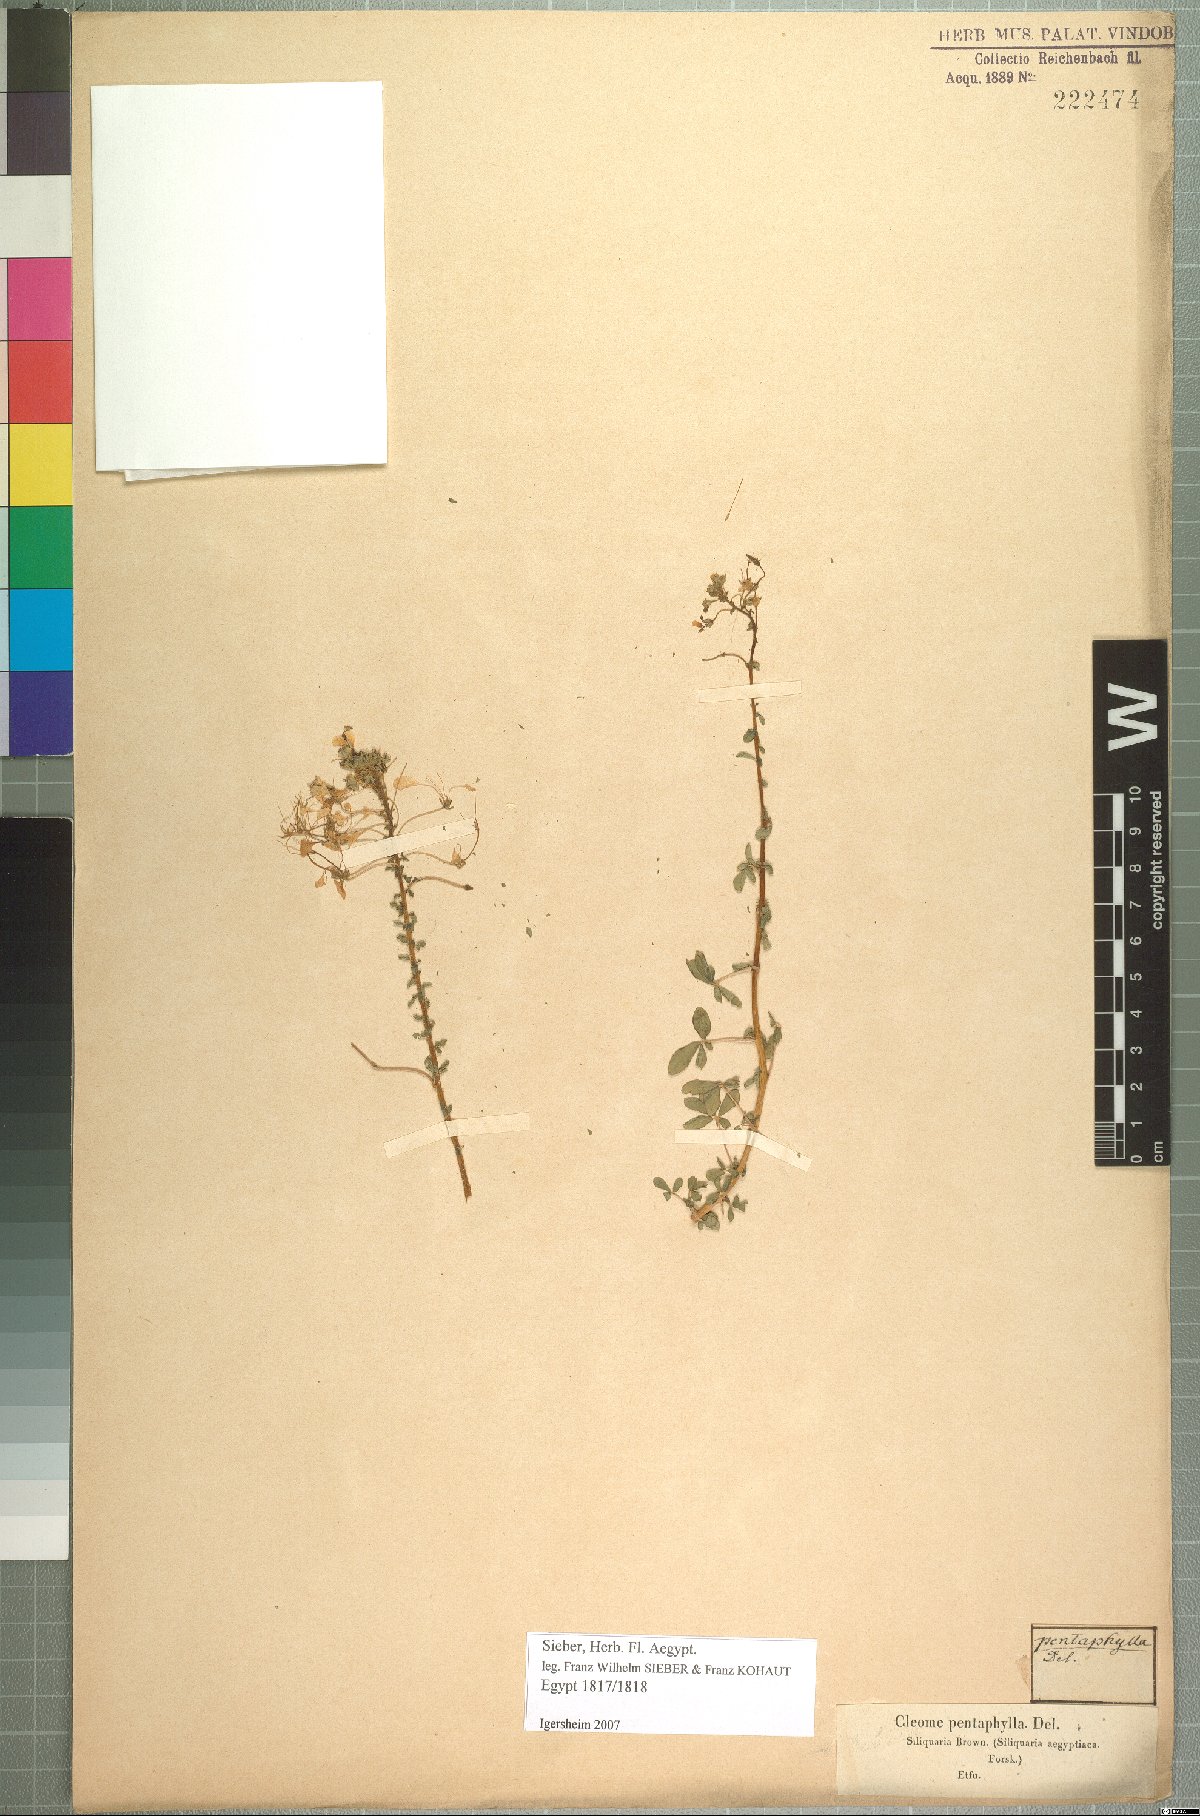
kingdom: Plantae
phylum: Tracheophyta
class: Magnoliopsida
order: Brassicales
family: Cleomaceae
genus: Gynandropsis
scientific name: Gynandropsis gynandra
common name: Spiderwisp
